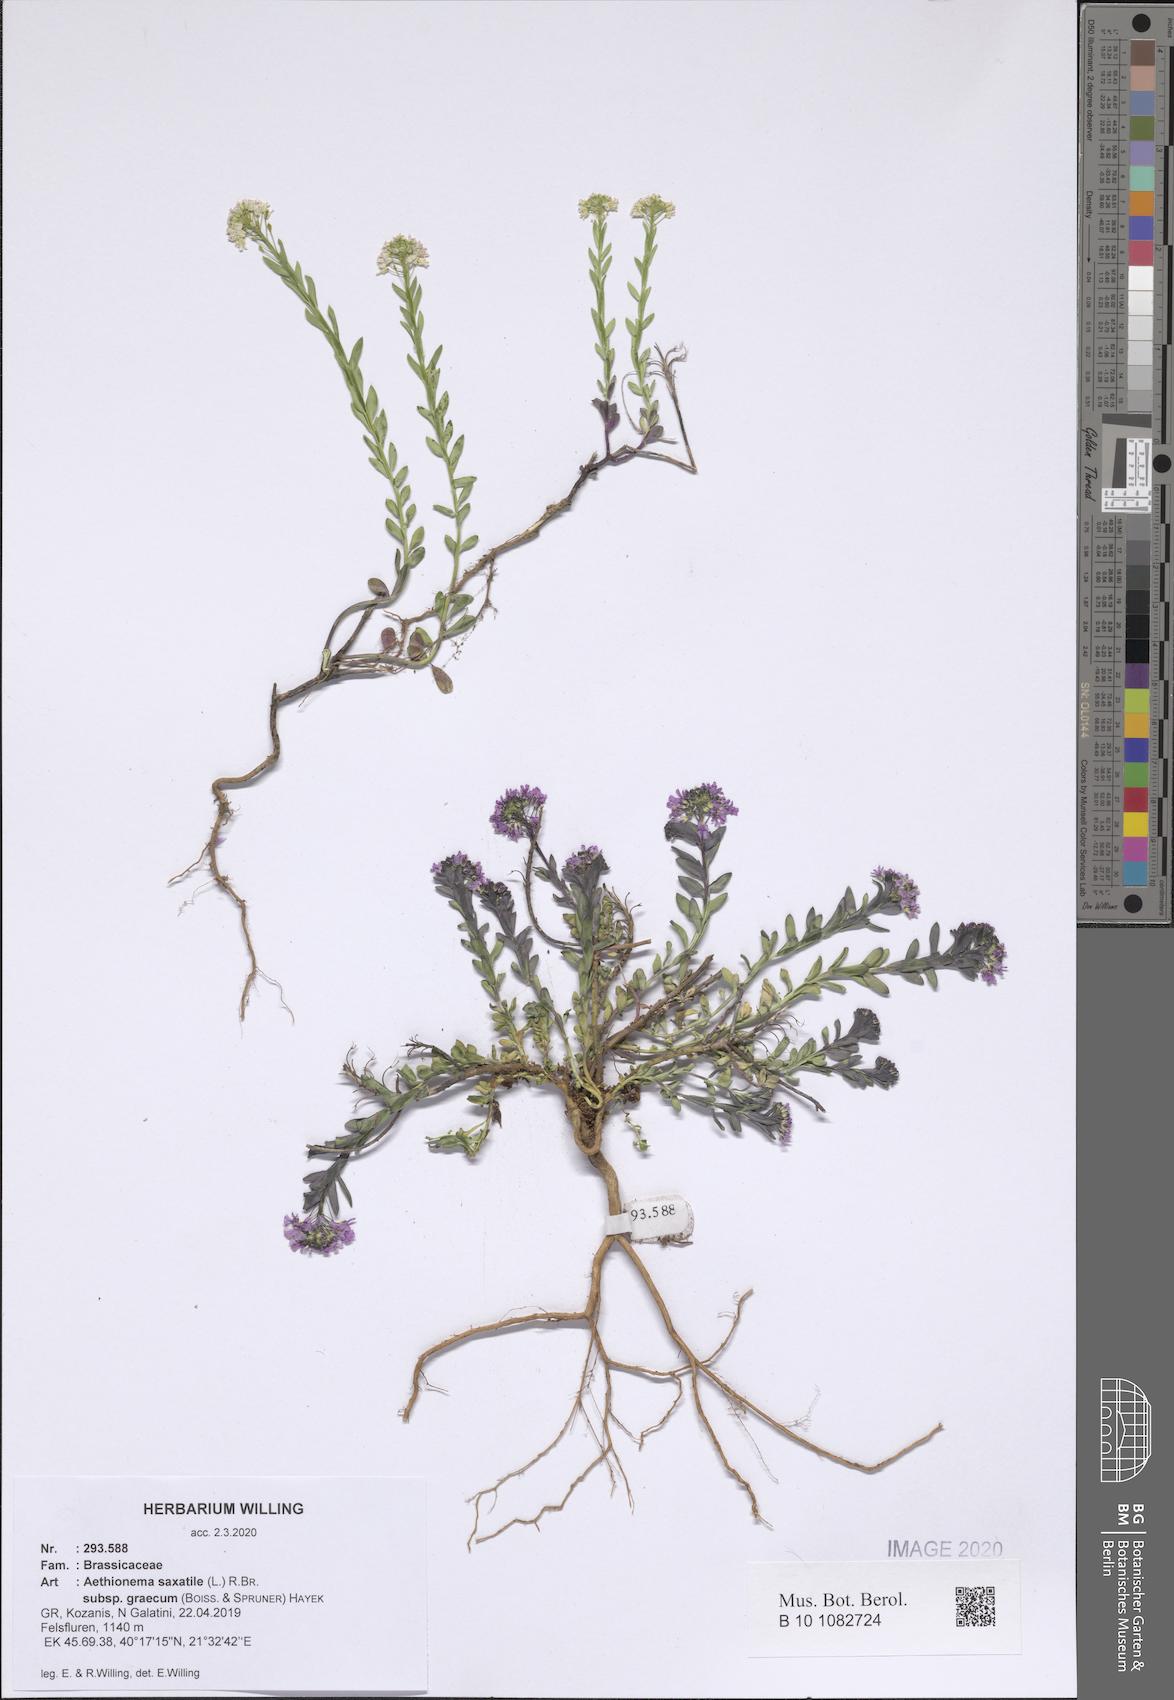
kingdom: Plantae
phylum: Tracheophyta
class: Magnoliopsida
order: Brassicales
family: Brassicaceae
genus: Aethionema
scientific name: Aethionema saxatile
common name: Burnt candytuft
